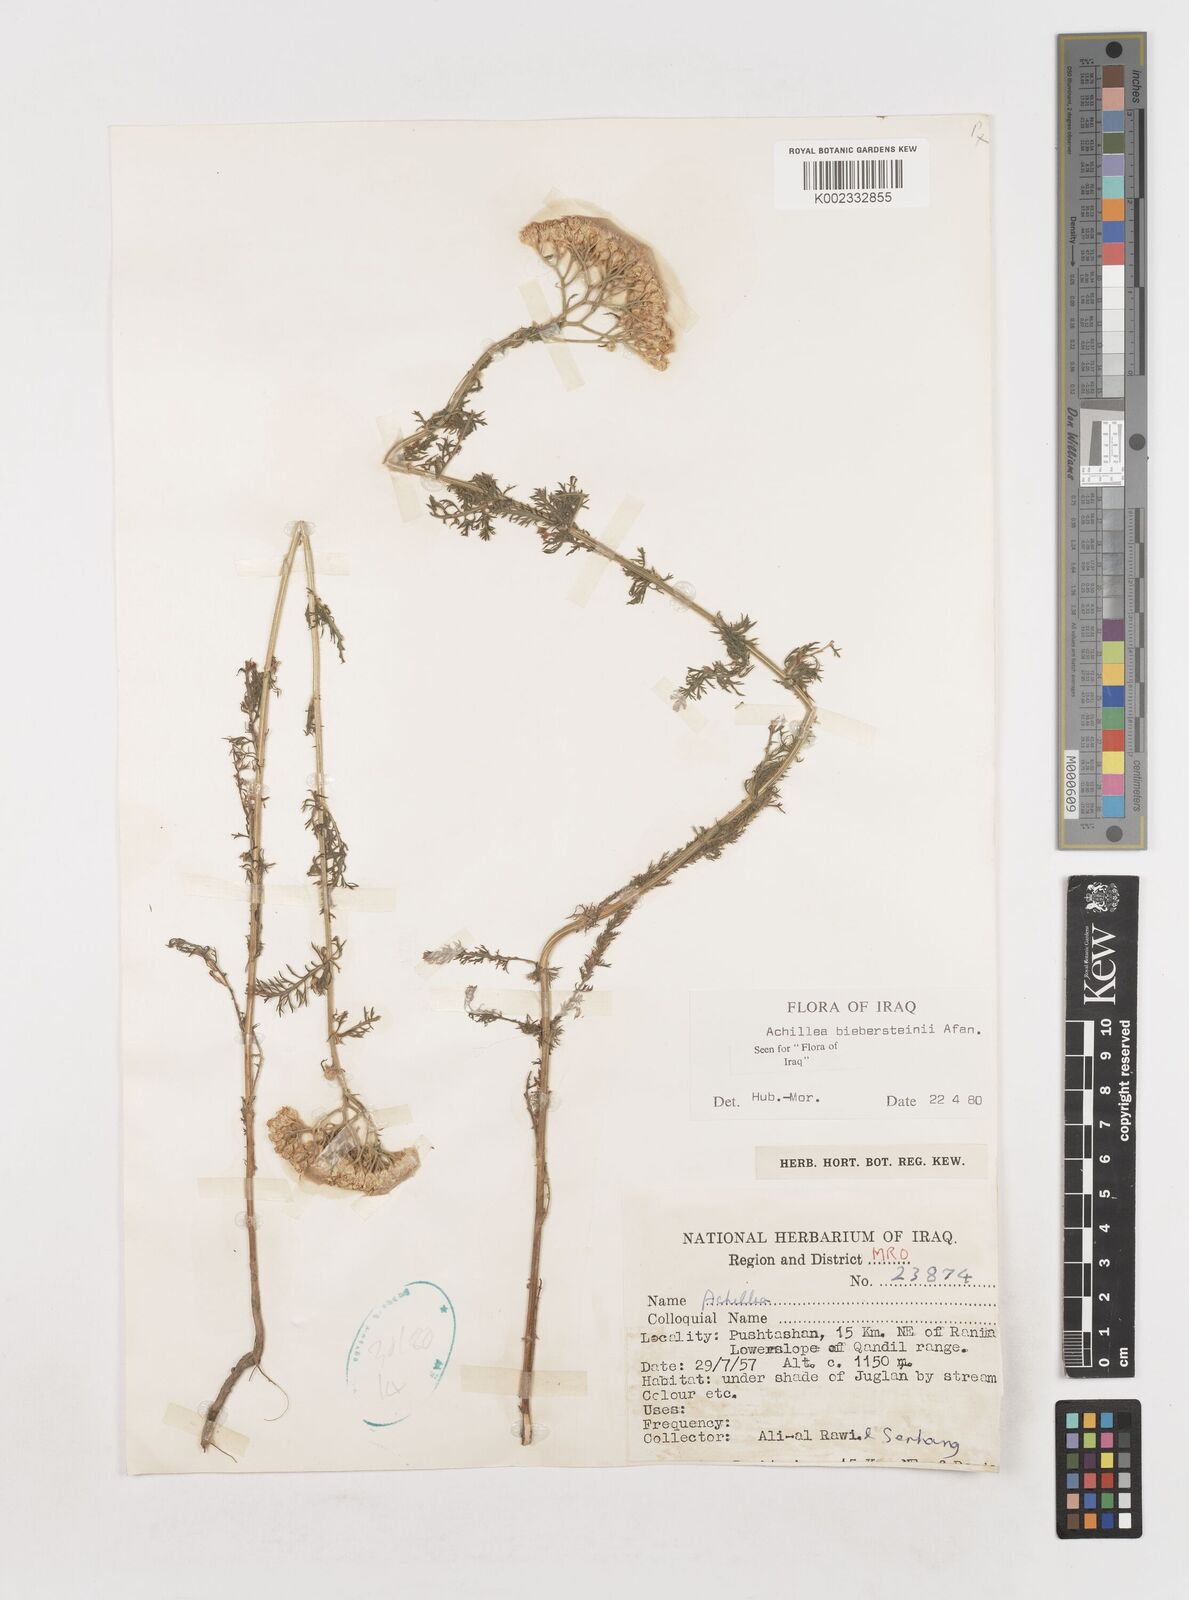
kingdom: Plantae
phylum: Tracheophyta
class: Magnoliopsida
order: Asterales
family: Asteraceae
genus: Achillea
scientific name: Achillea arabica
